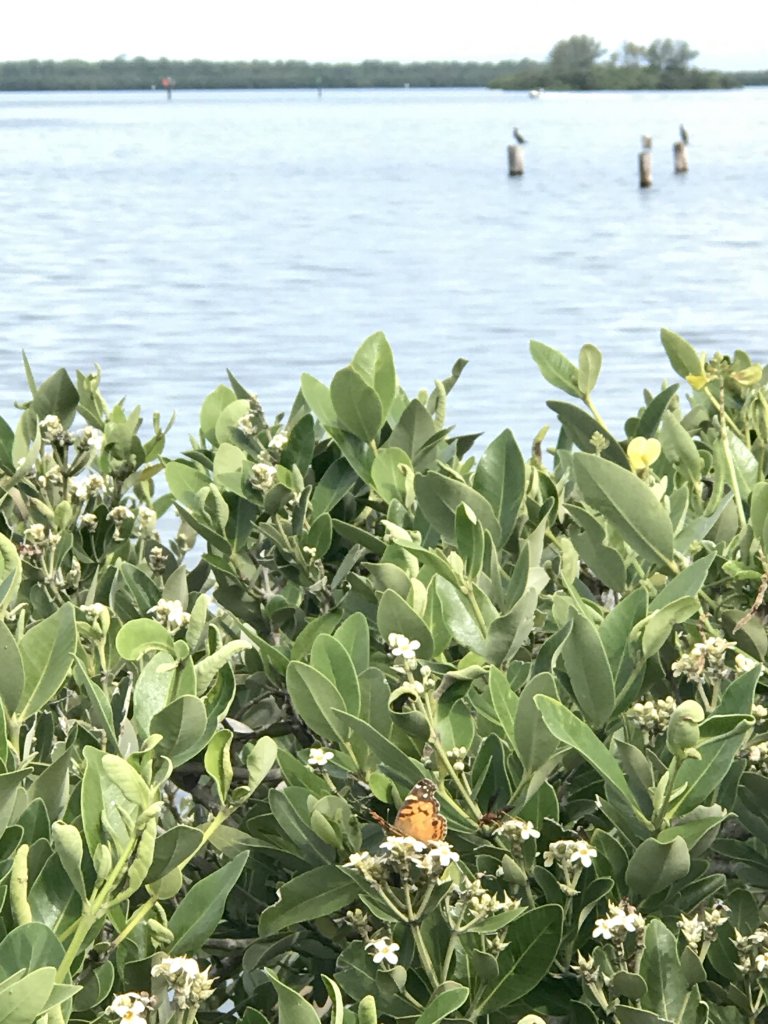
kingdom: Animalia
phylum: Arthropoda
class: Insecta
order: Lepidoptera
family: Nymphalidae
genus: Vanessa
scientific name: Vanessa virginiensis
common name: American Lady
